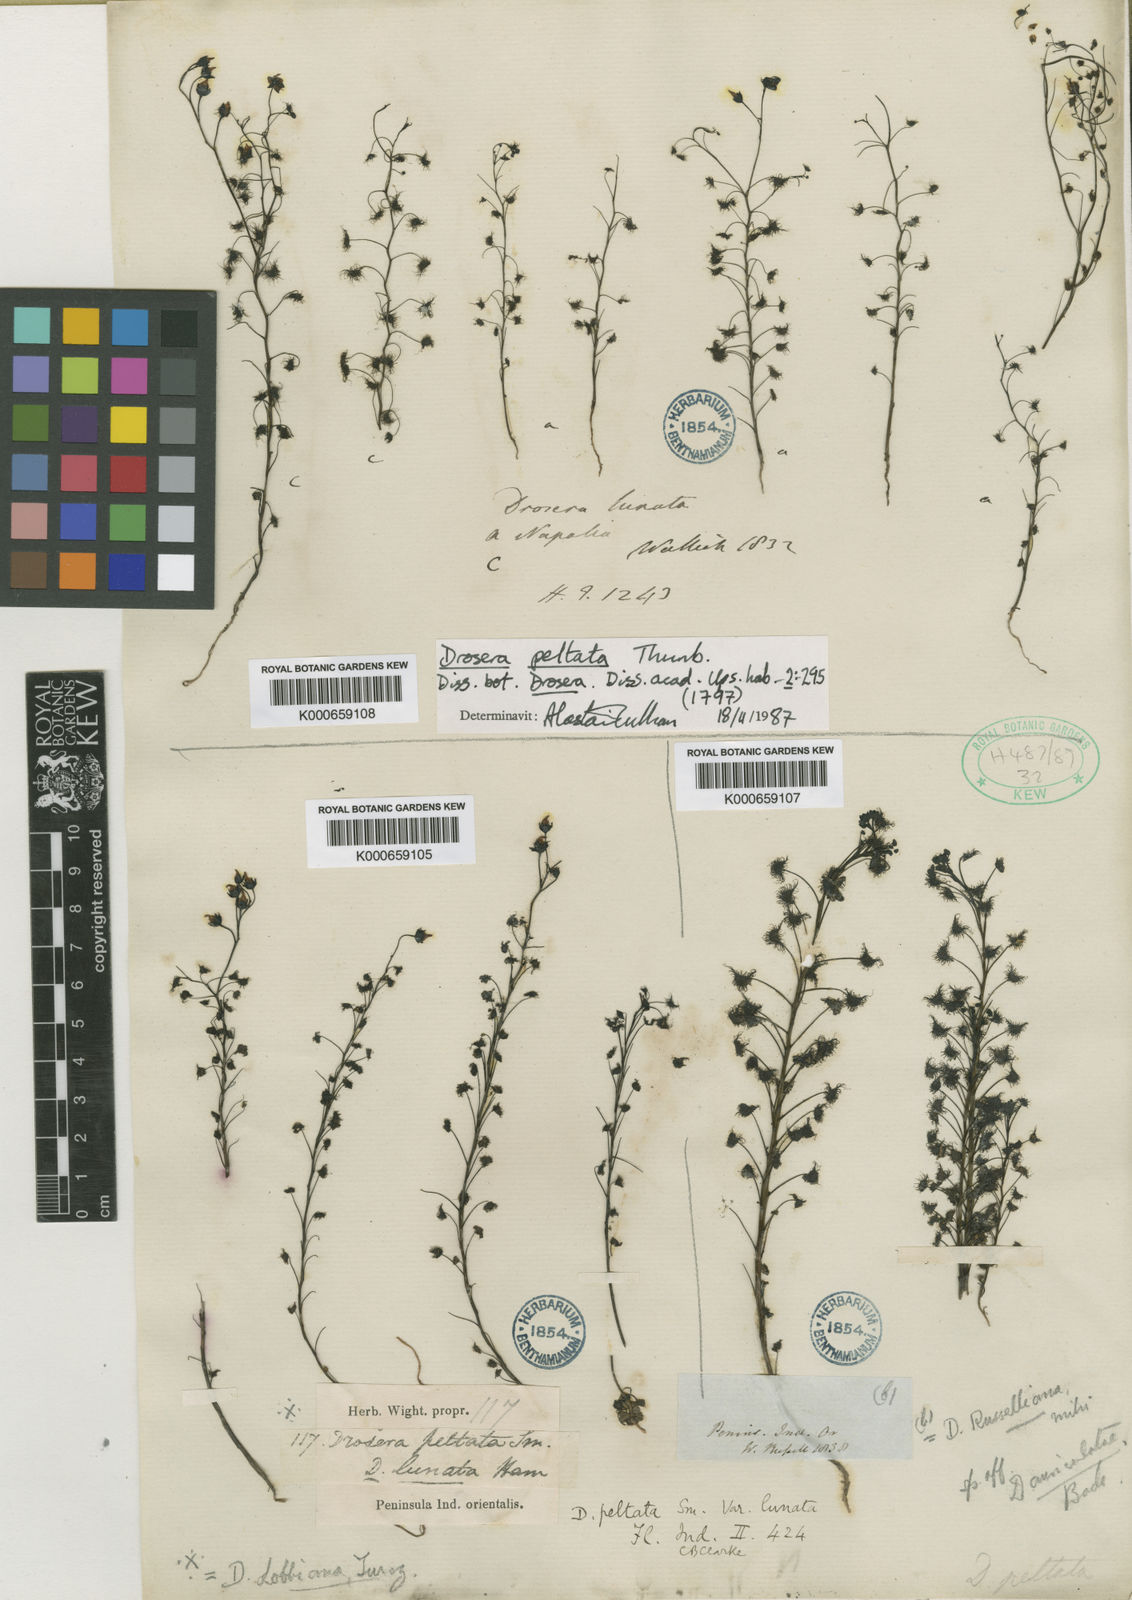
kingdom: Plantae
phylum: Tracheophyta
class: Magnoliopsida
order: Caryophyllales
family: Droseraceae
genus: Drosera
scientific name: Drosera peltata
